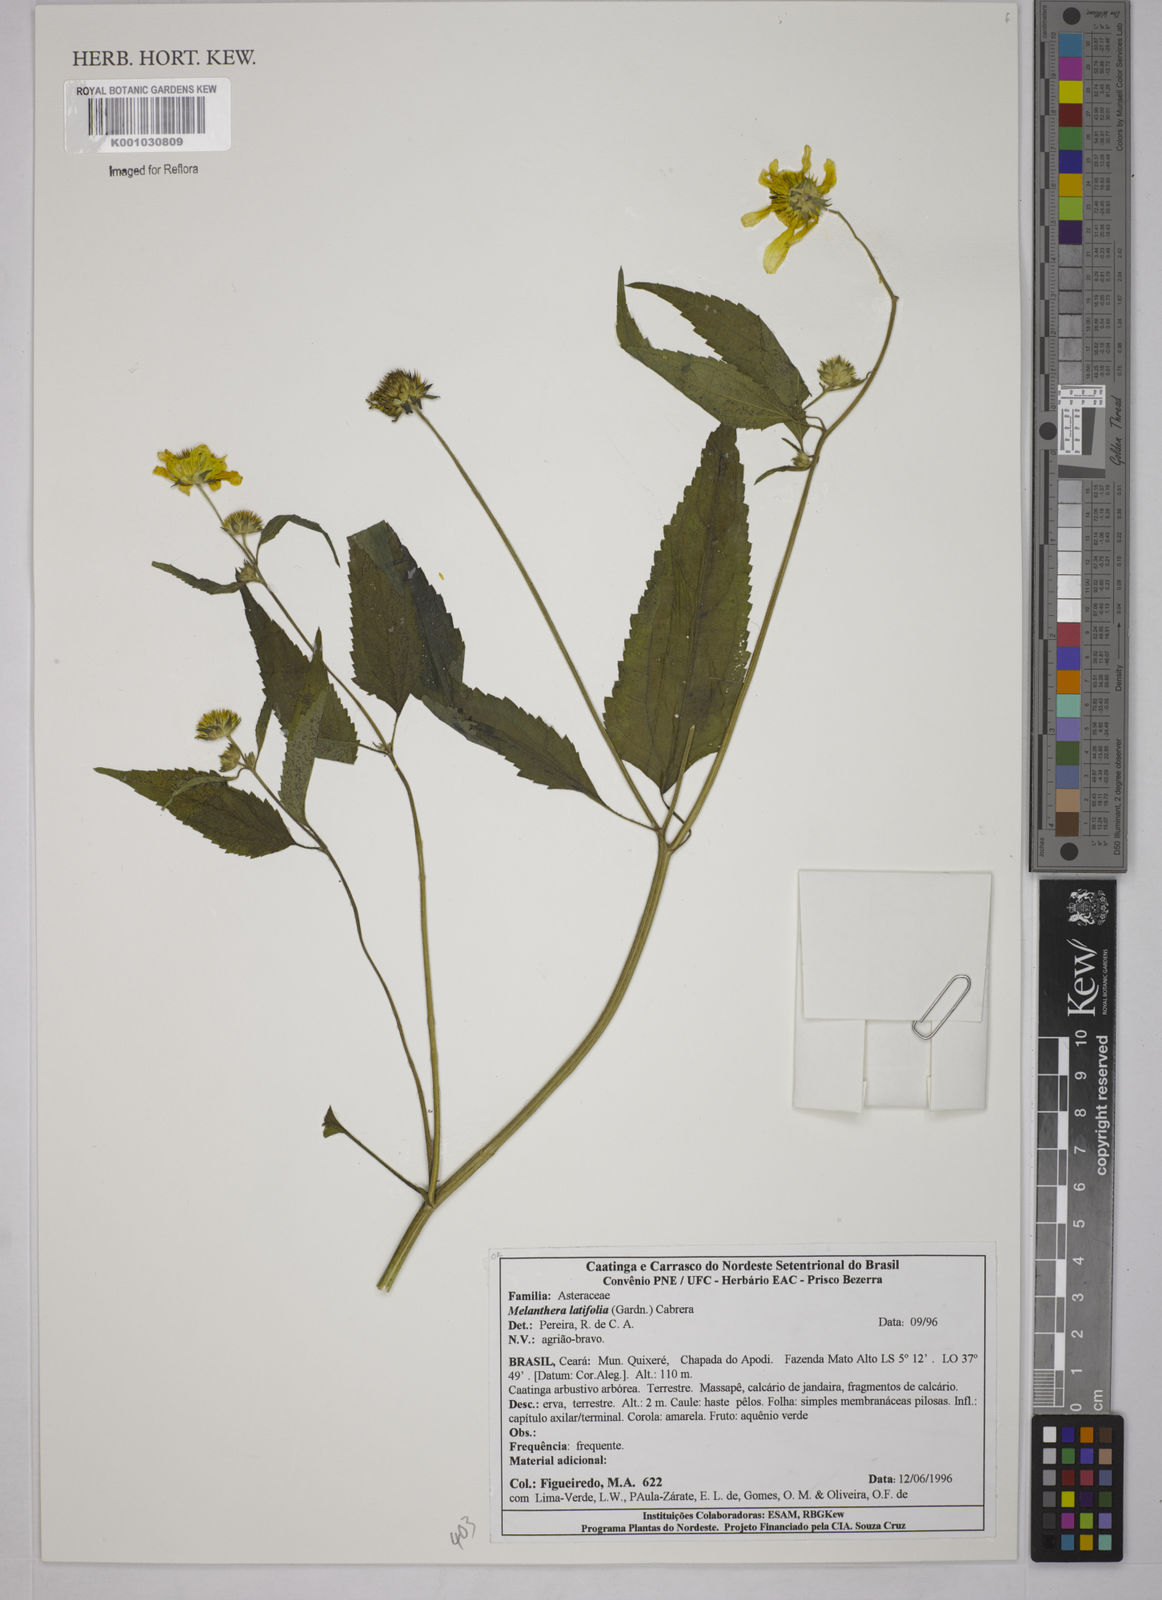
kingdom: Plantae
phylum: Tracheophyta
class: Magnoliopsida
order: Asterales
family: Asteraceae
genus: Echinocephalum
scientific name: Echinocephalum latifolium
